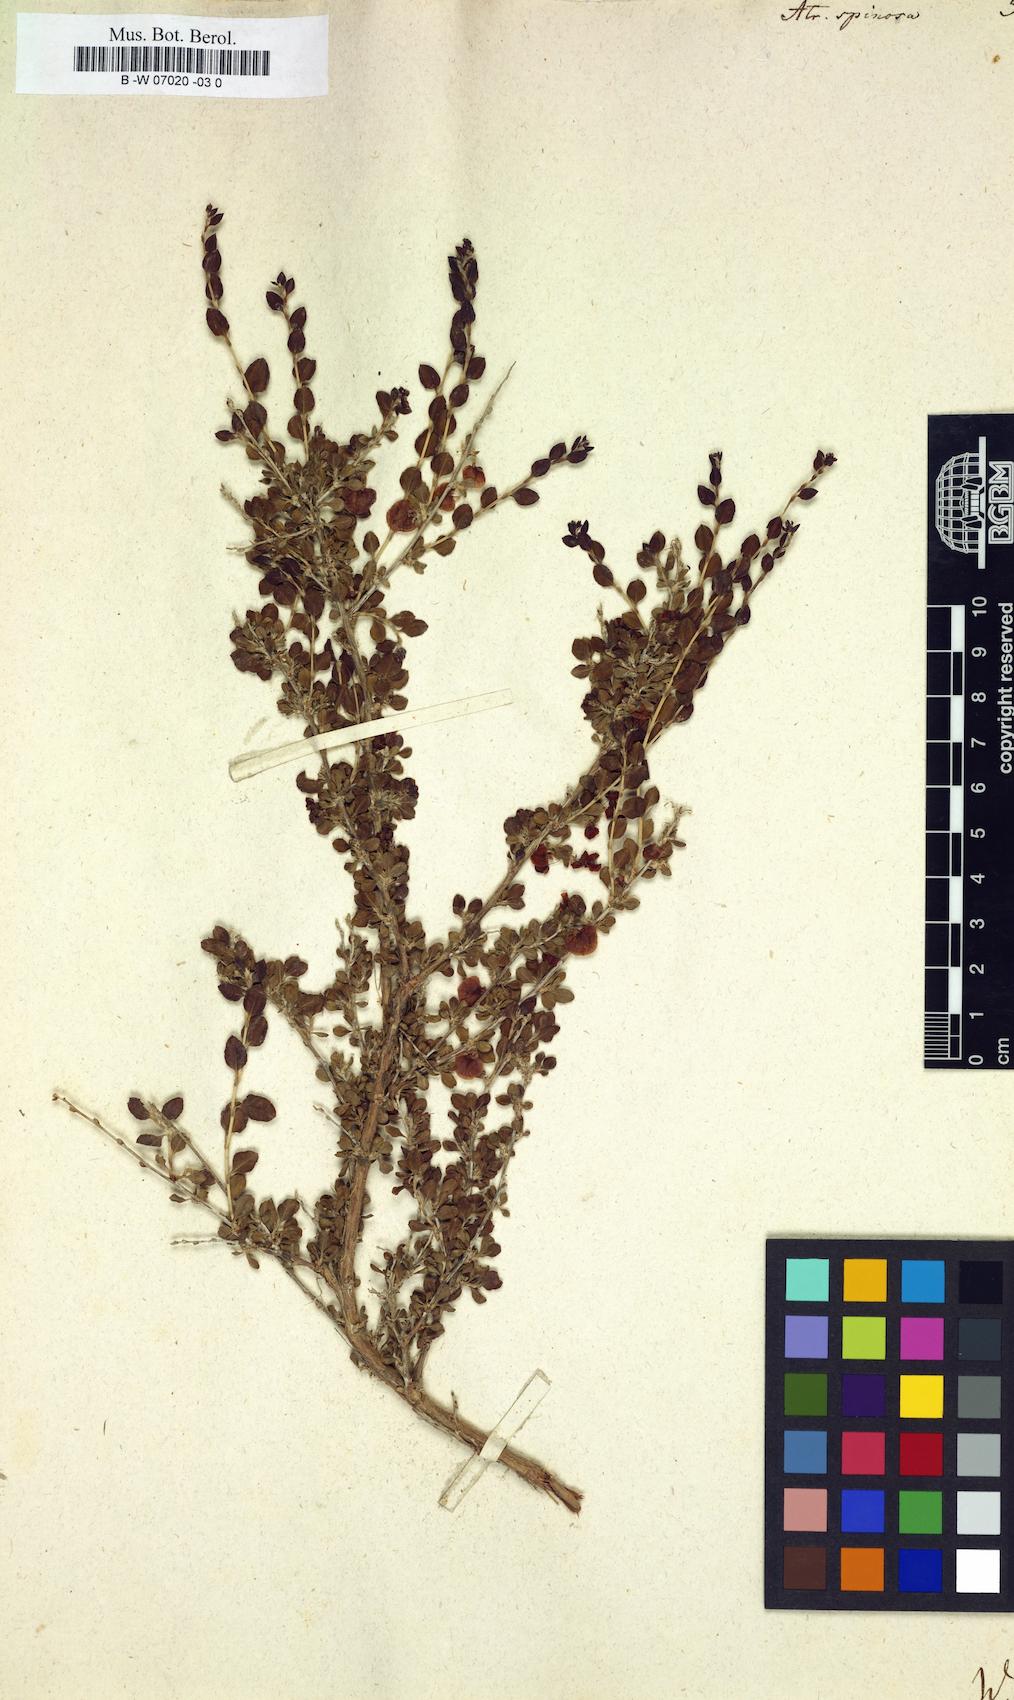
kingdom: Plantae
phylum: Tracheophyta
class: Magnoliopsida
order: Caryophyllales
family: Polygonaceae
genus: Atraphaxis
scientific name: Atraphaxis spinosa
